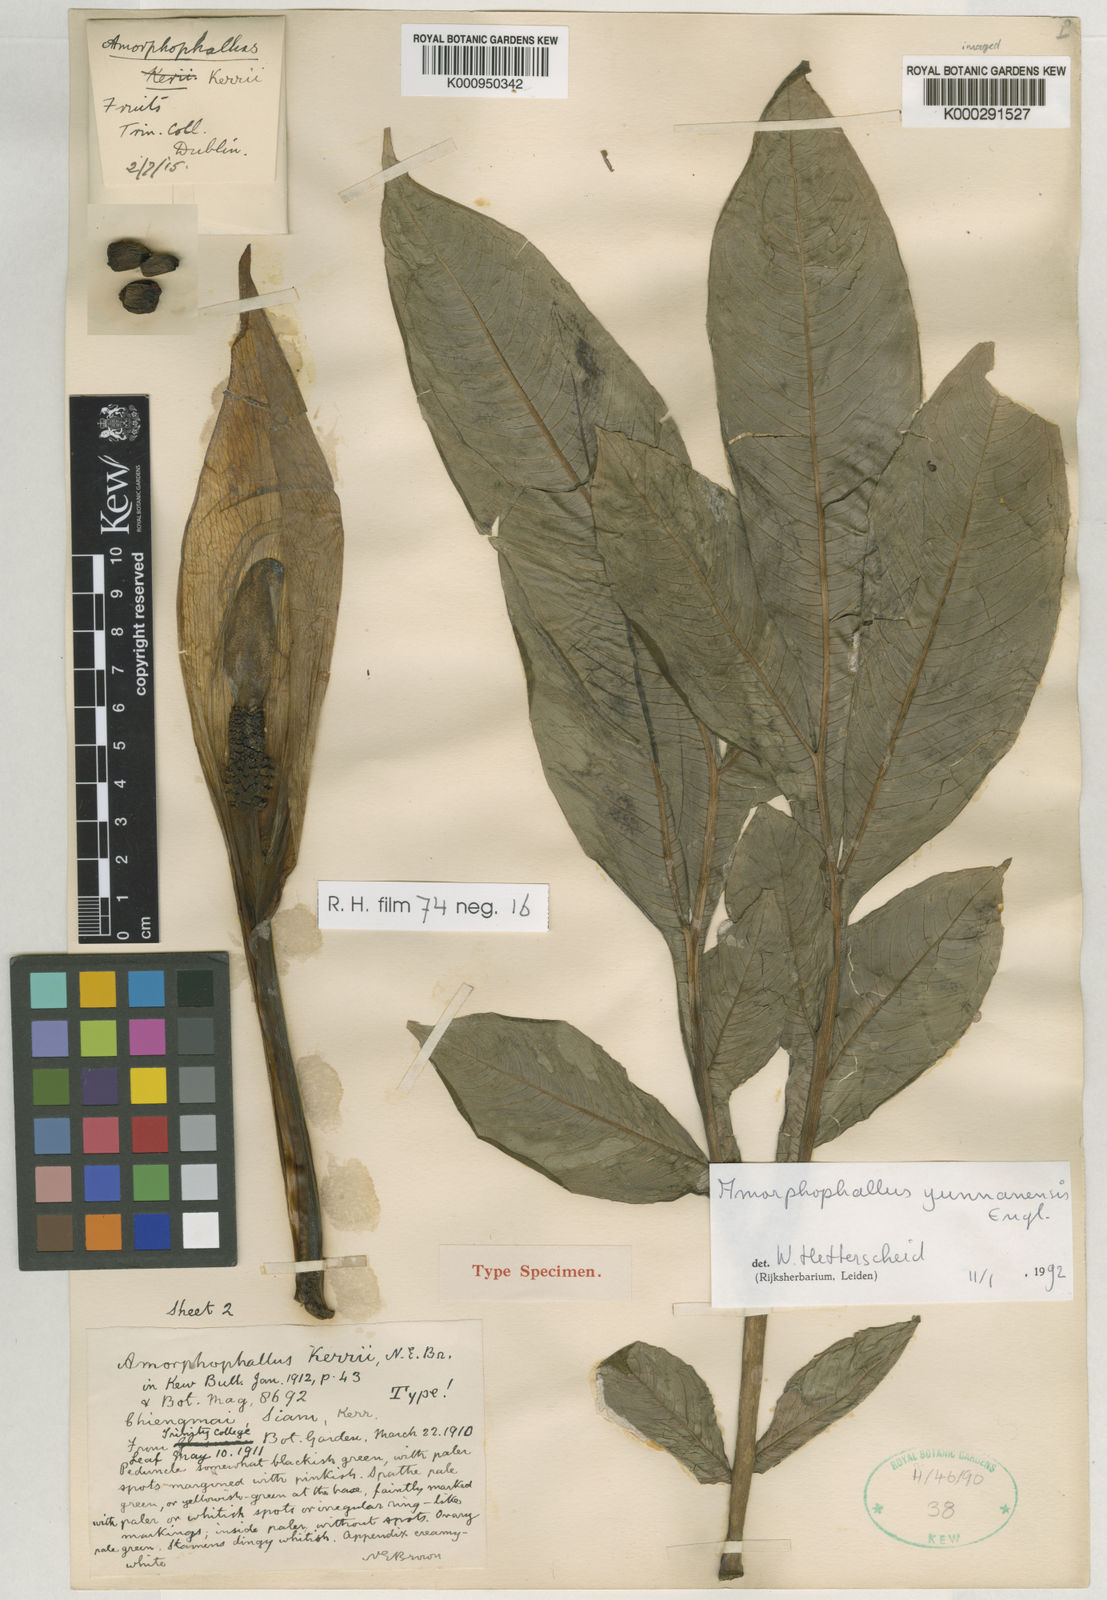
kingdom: Plantae
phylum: Tracheophyta
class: Liliopsida
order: Alismatales
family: Araceae
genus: Amorphophallus
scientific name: Amorphophallus yunnanensis
